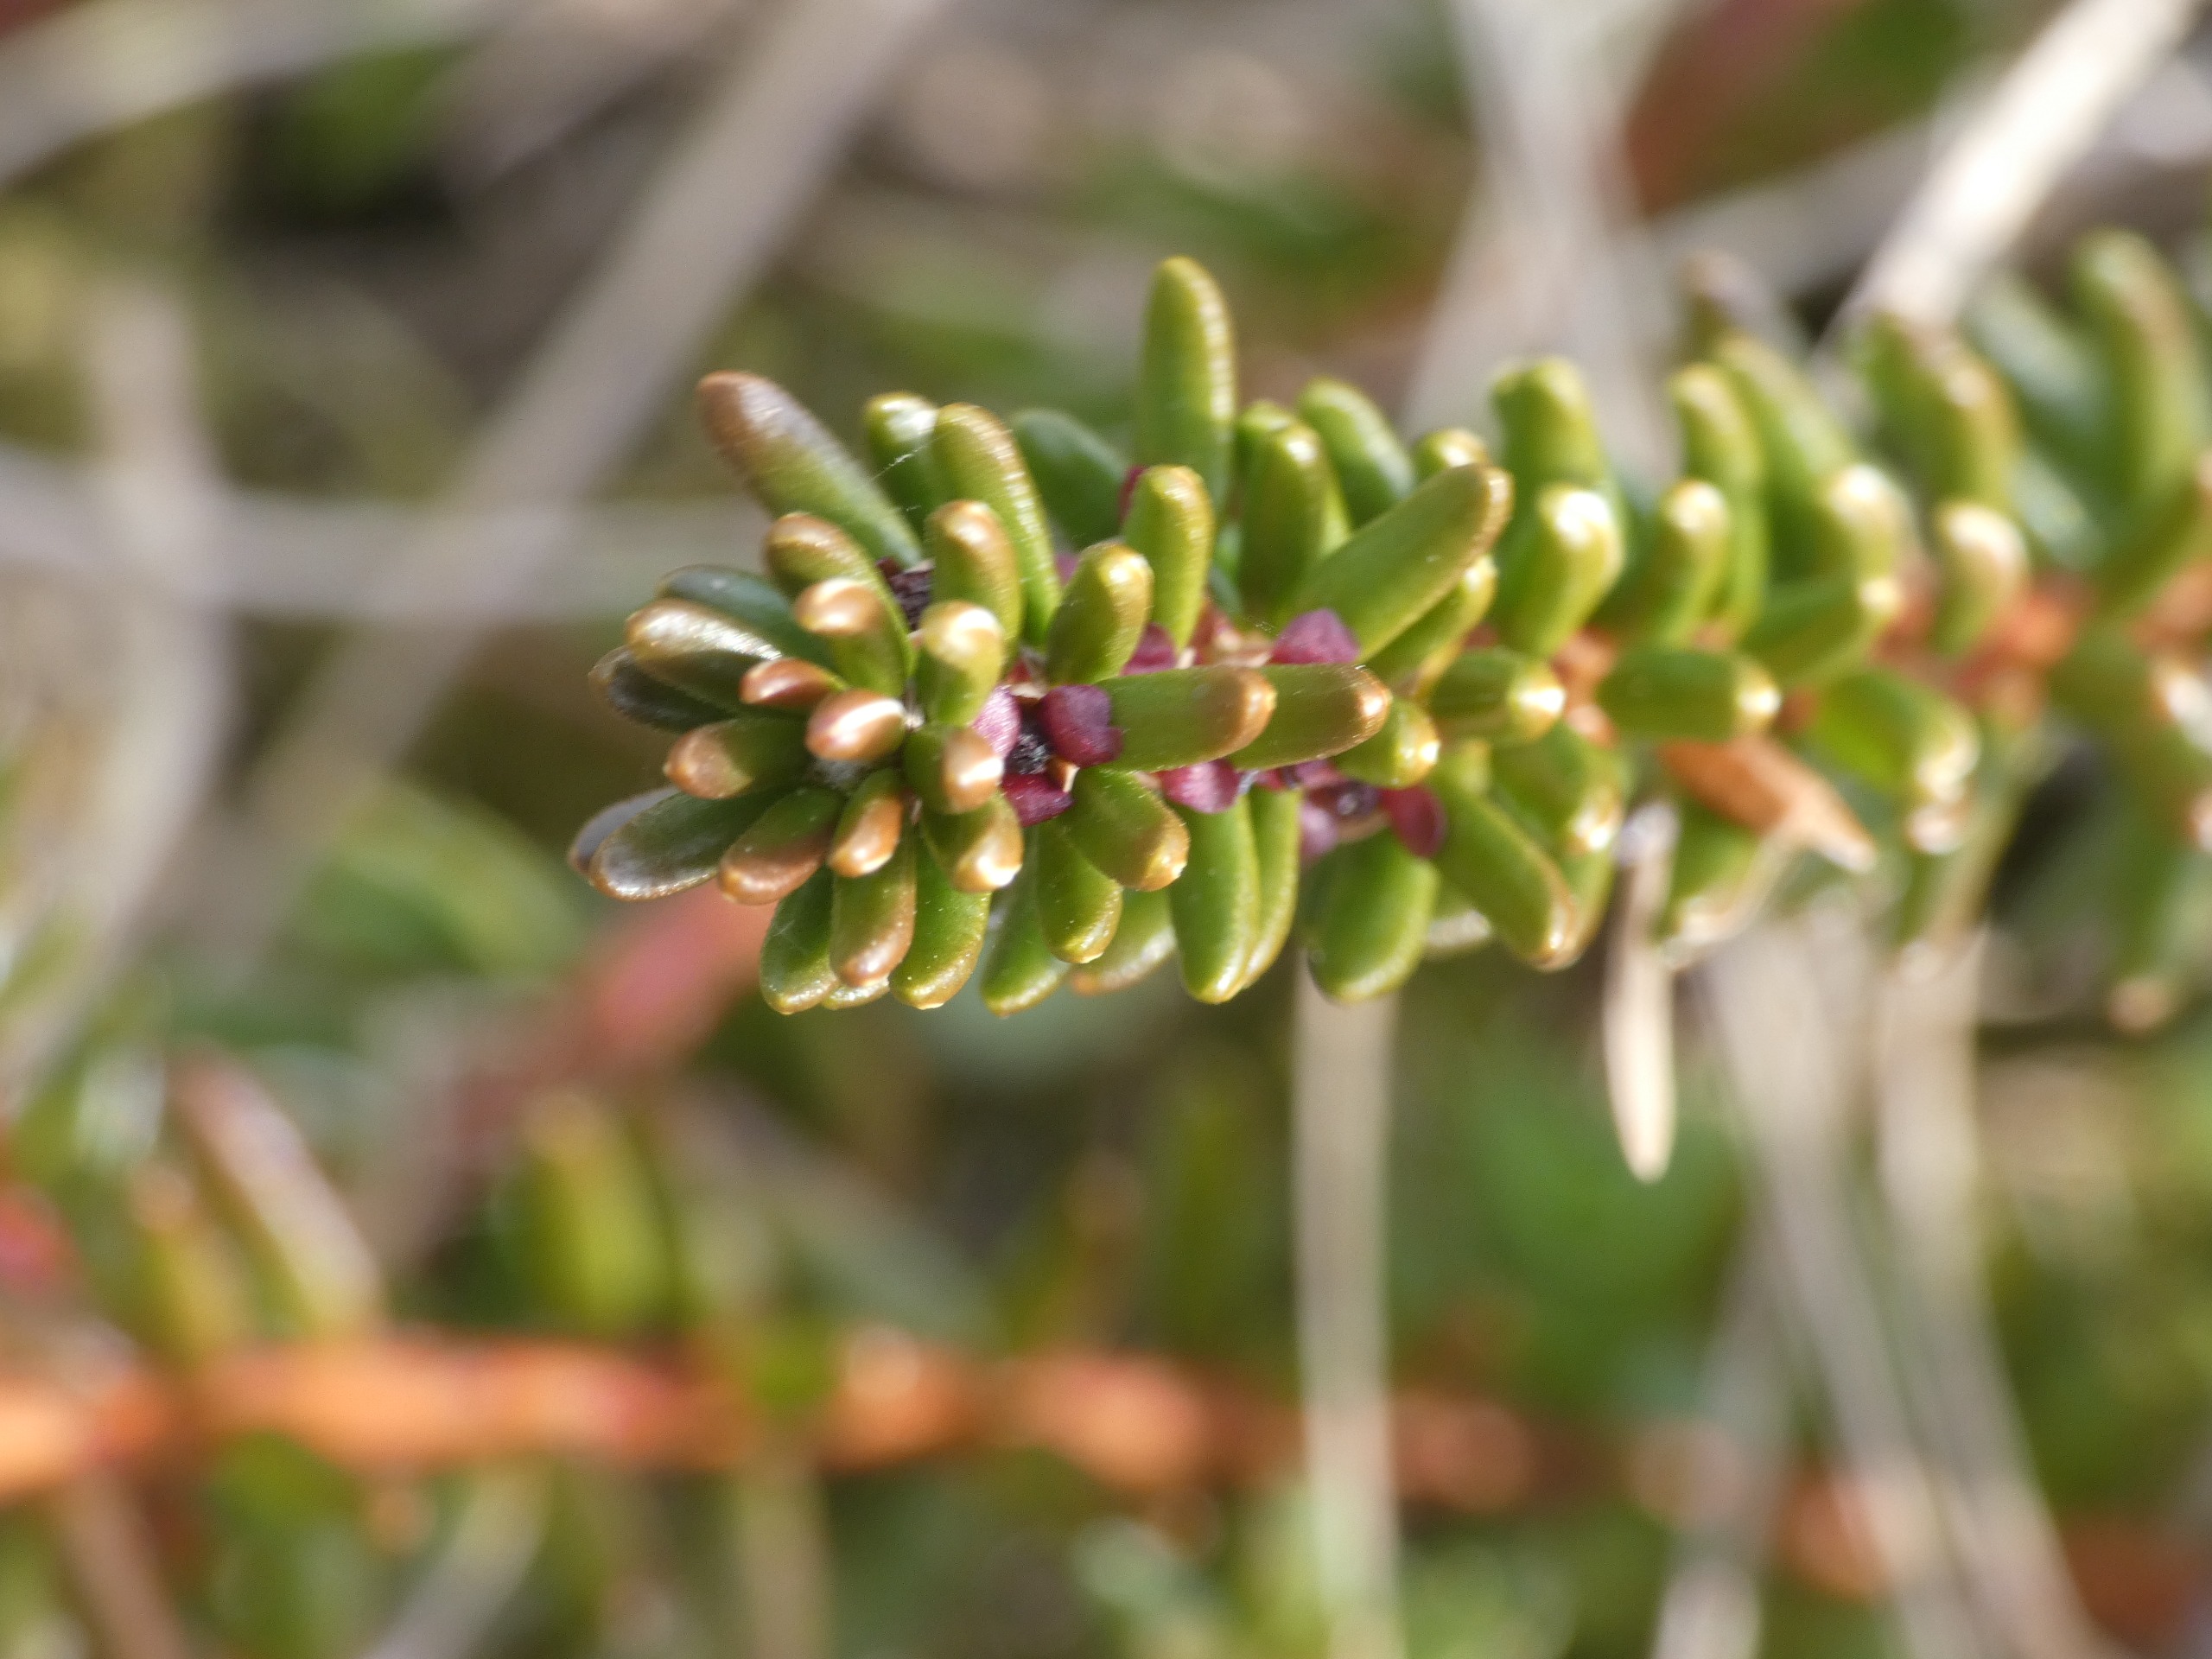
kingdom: Plantae
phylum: Tracheophyta
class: Magnoliopsida
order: Ericales
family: Ericaceae
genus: Empetrum
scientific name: Empetrum nigrum
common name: Revling
